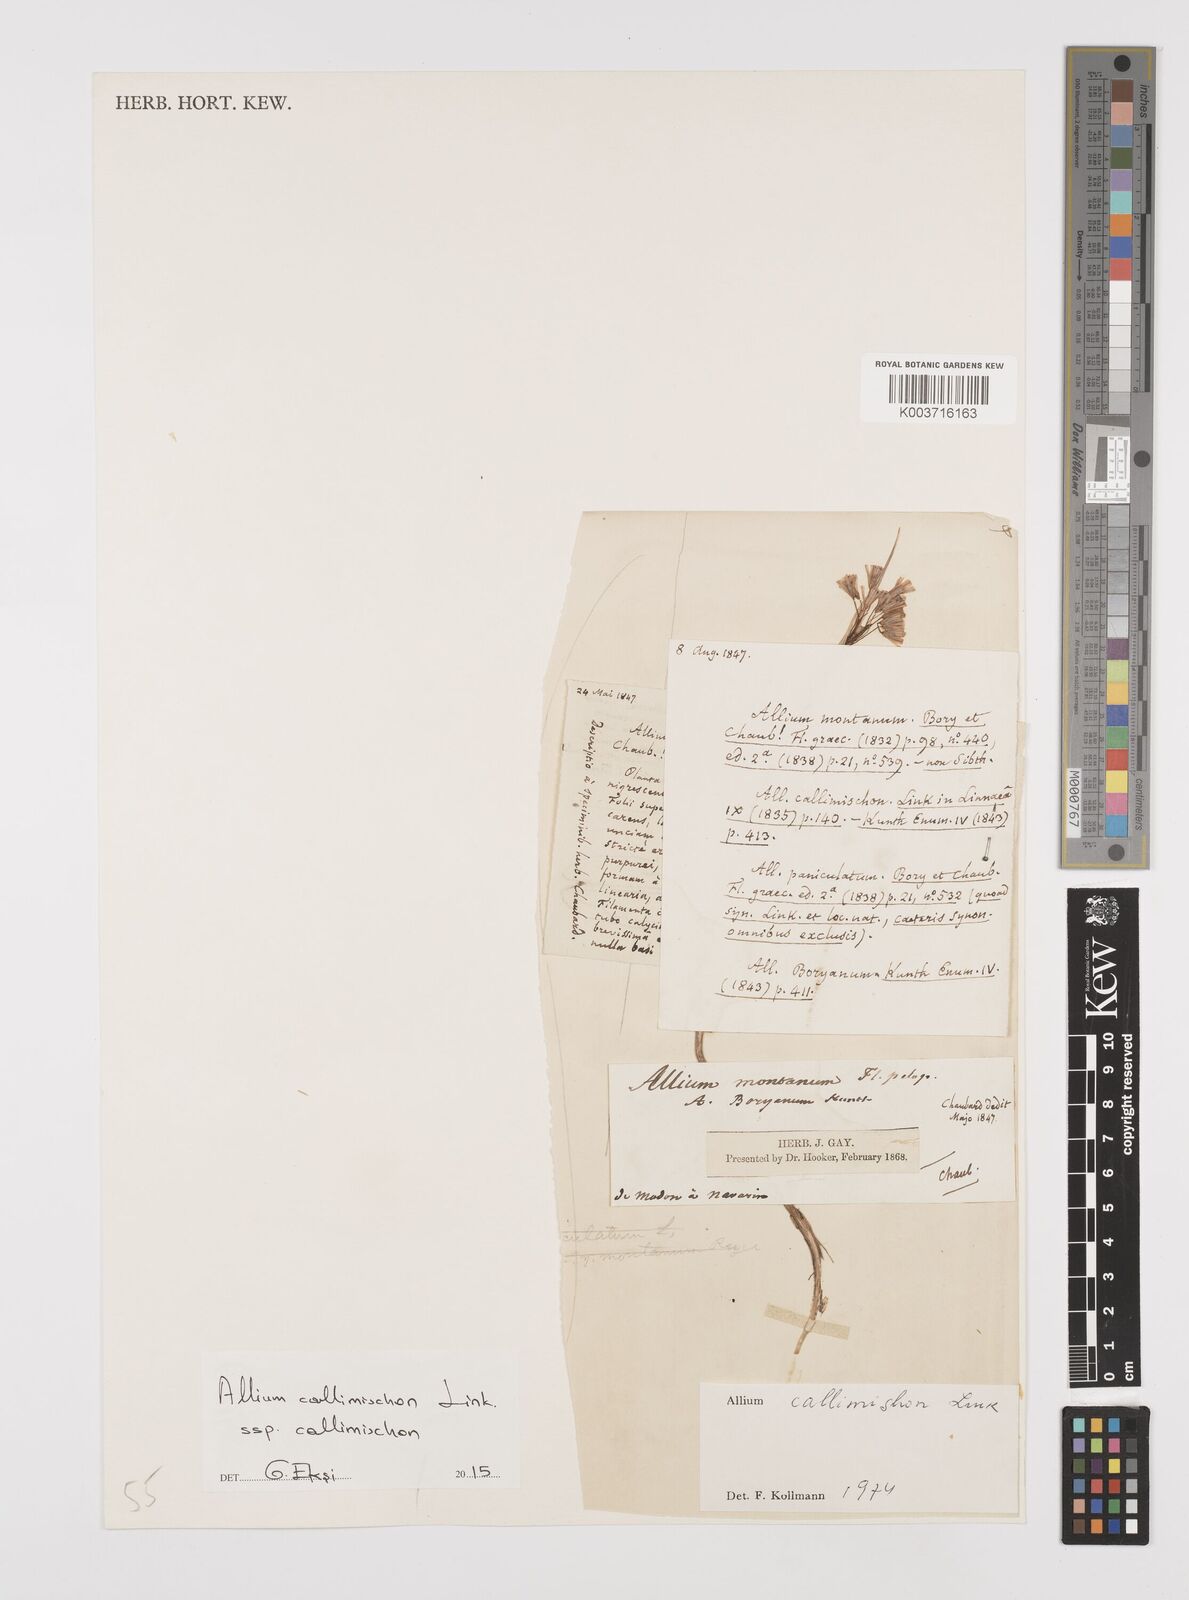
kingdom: Plantae
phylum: Tracheophyta
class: Liliopsida
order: Asparagales
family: Amaryllidaceae
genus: Allium
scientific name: Allium callimischon
